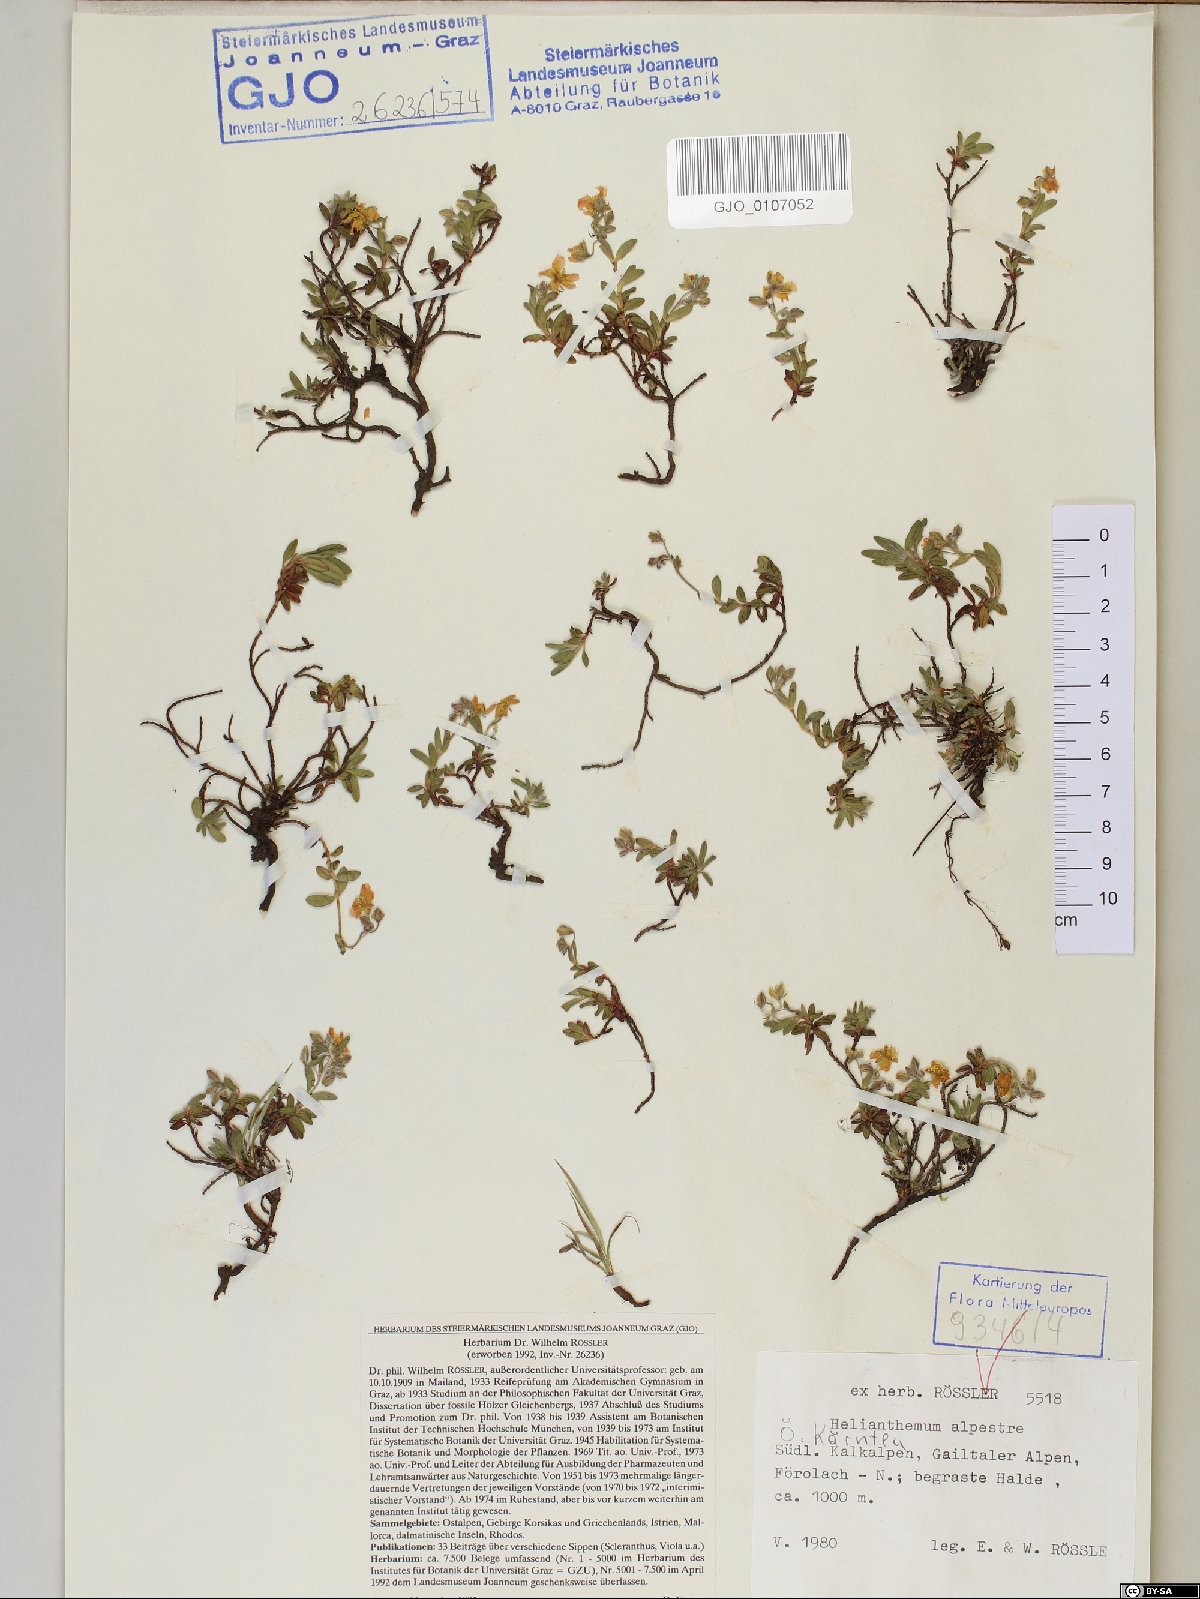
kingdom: Plantae
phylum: Tracheophyta
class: Magnoliopsida
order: Malvales
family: Cistaceae
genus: Helianthemum
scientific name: Helianthemum alpestre
